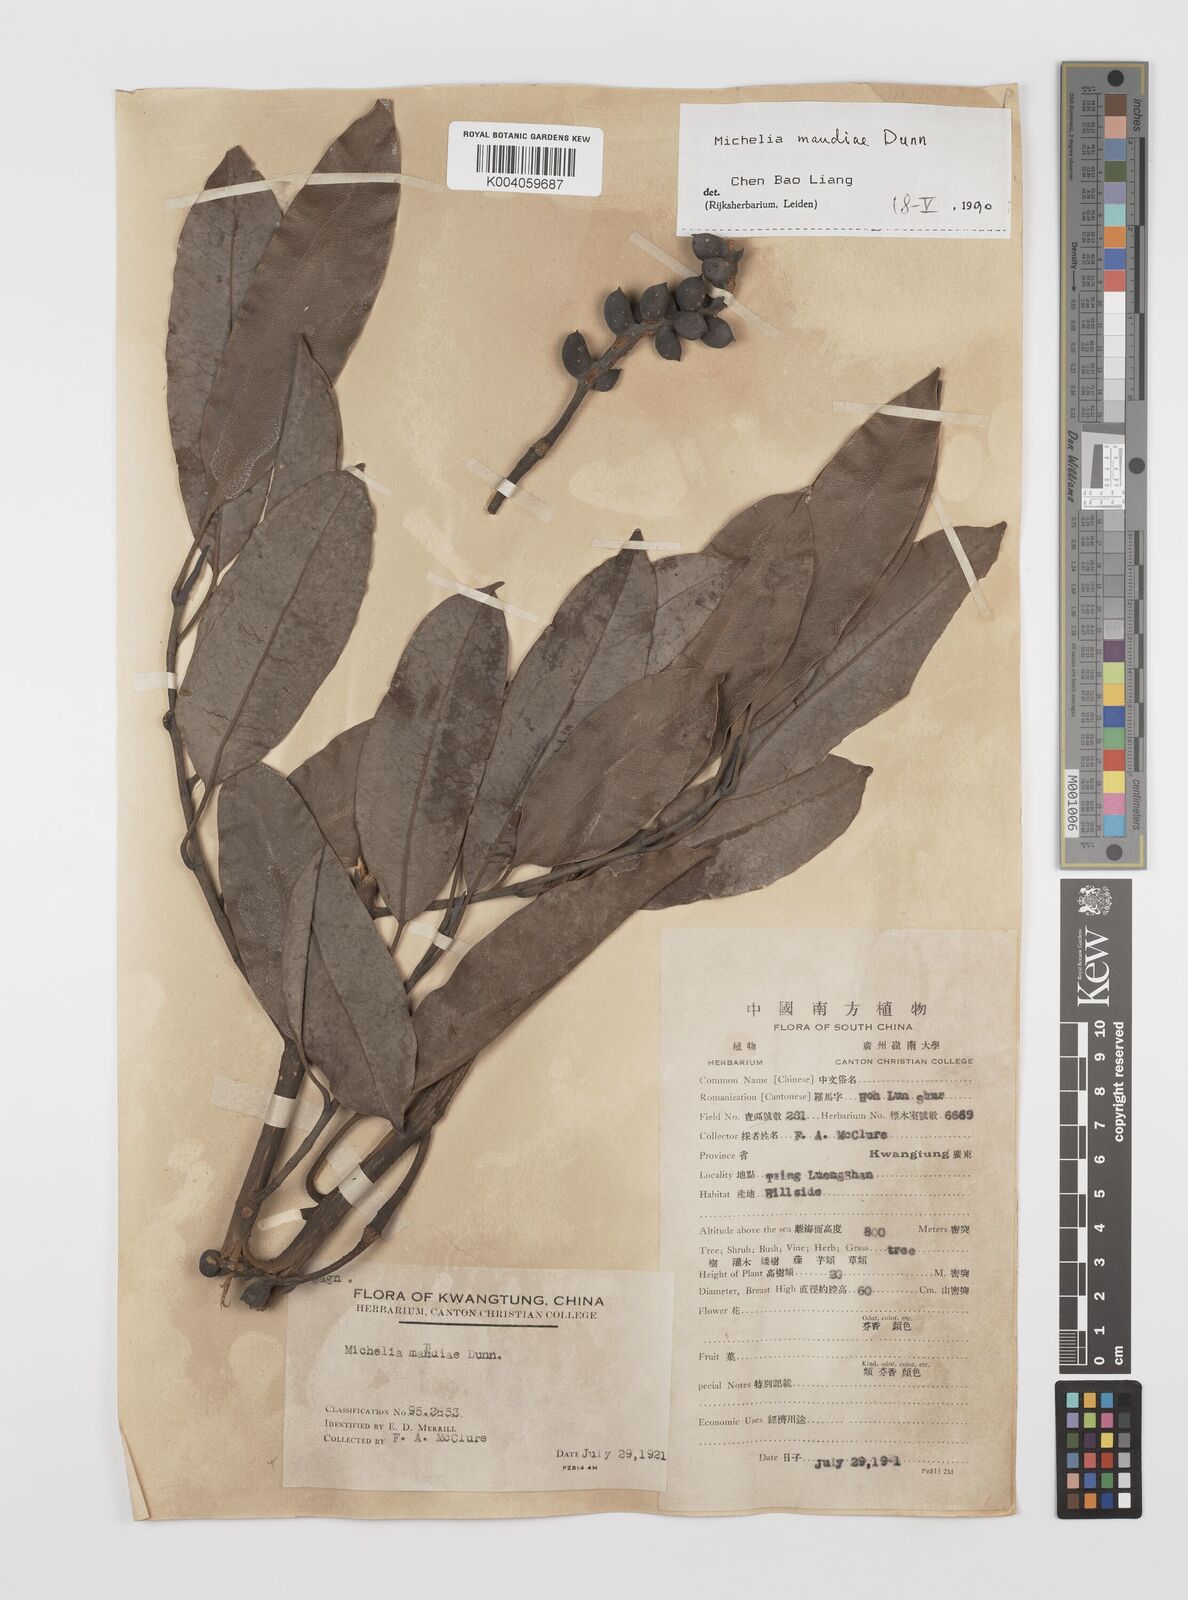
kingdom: Plantae
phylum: Tracheophyta
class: Magnoliopsida
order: Magnoliales
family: Magnoliaceae
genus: Magnolia
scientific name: Magnolia maudiae
